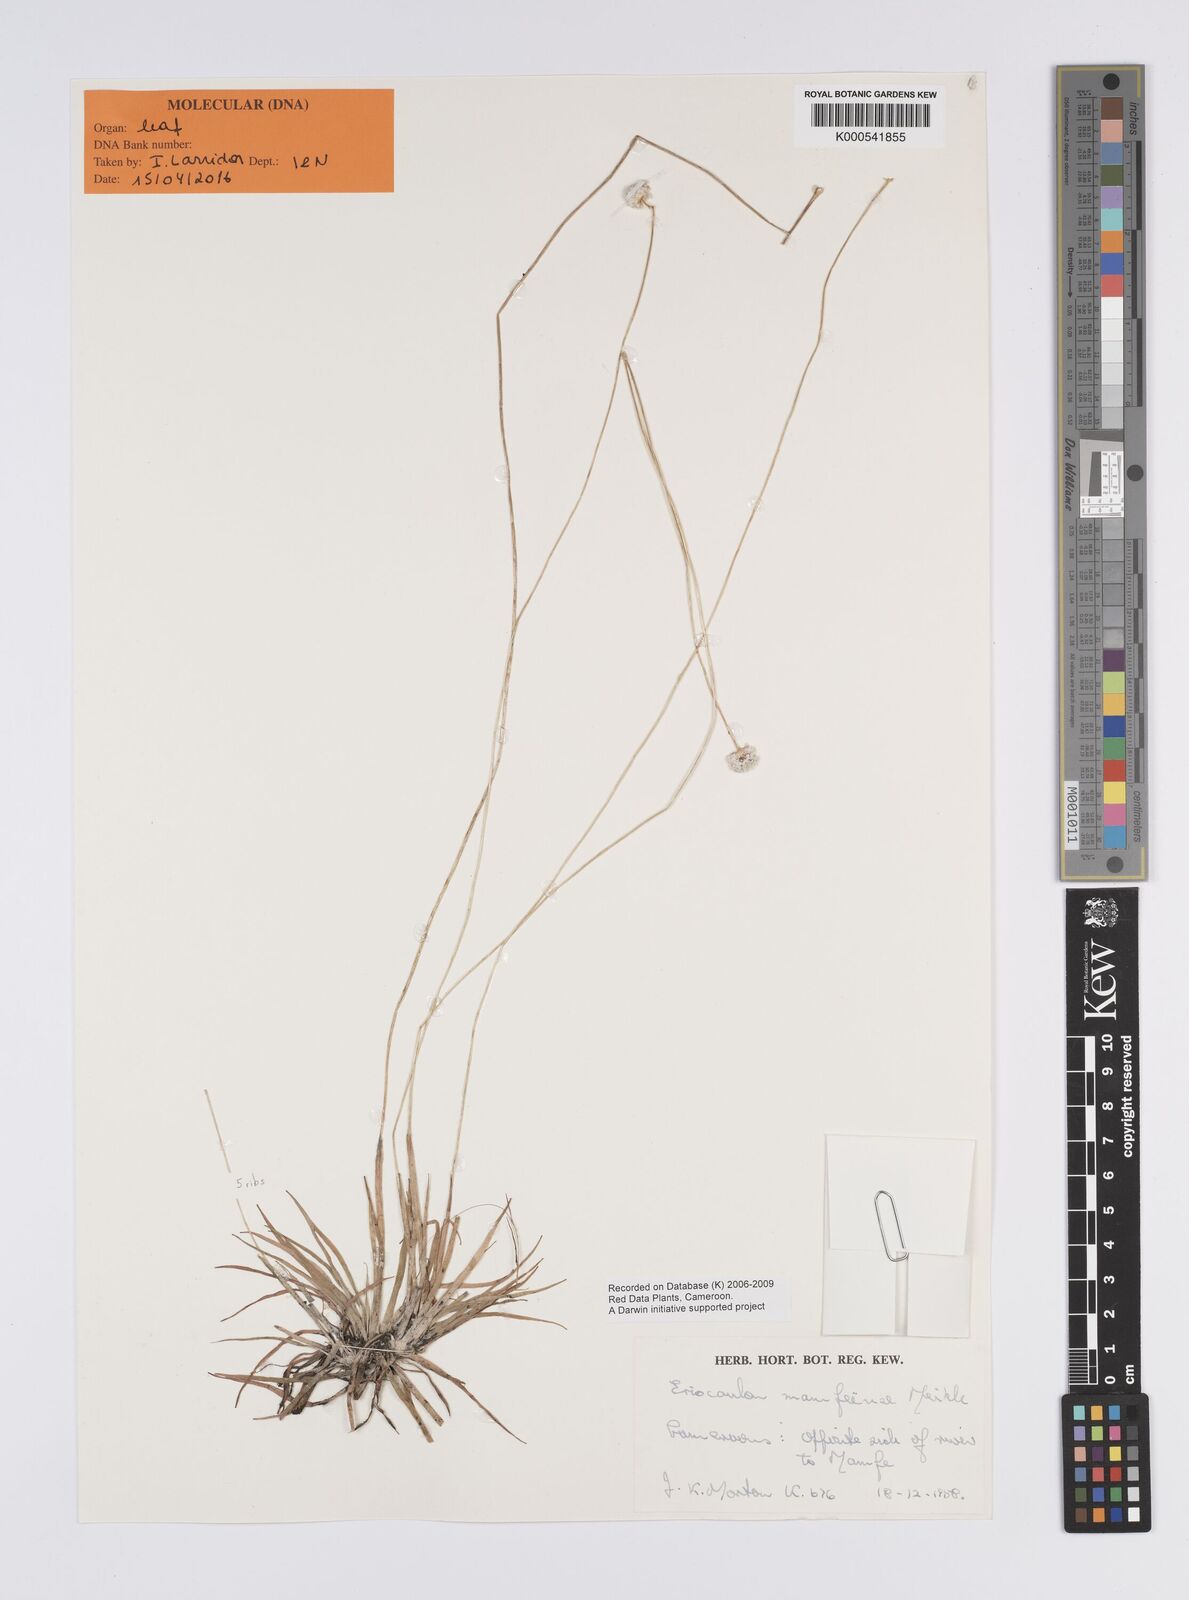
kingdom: Plantae
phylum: Tracheophyta
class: Liliopsida
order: Poales
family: Eriocaulaceae
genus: Eriocaulon
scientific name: Eriocaulon
